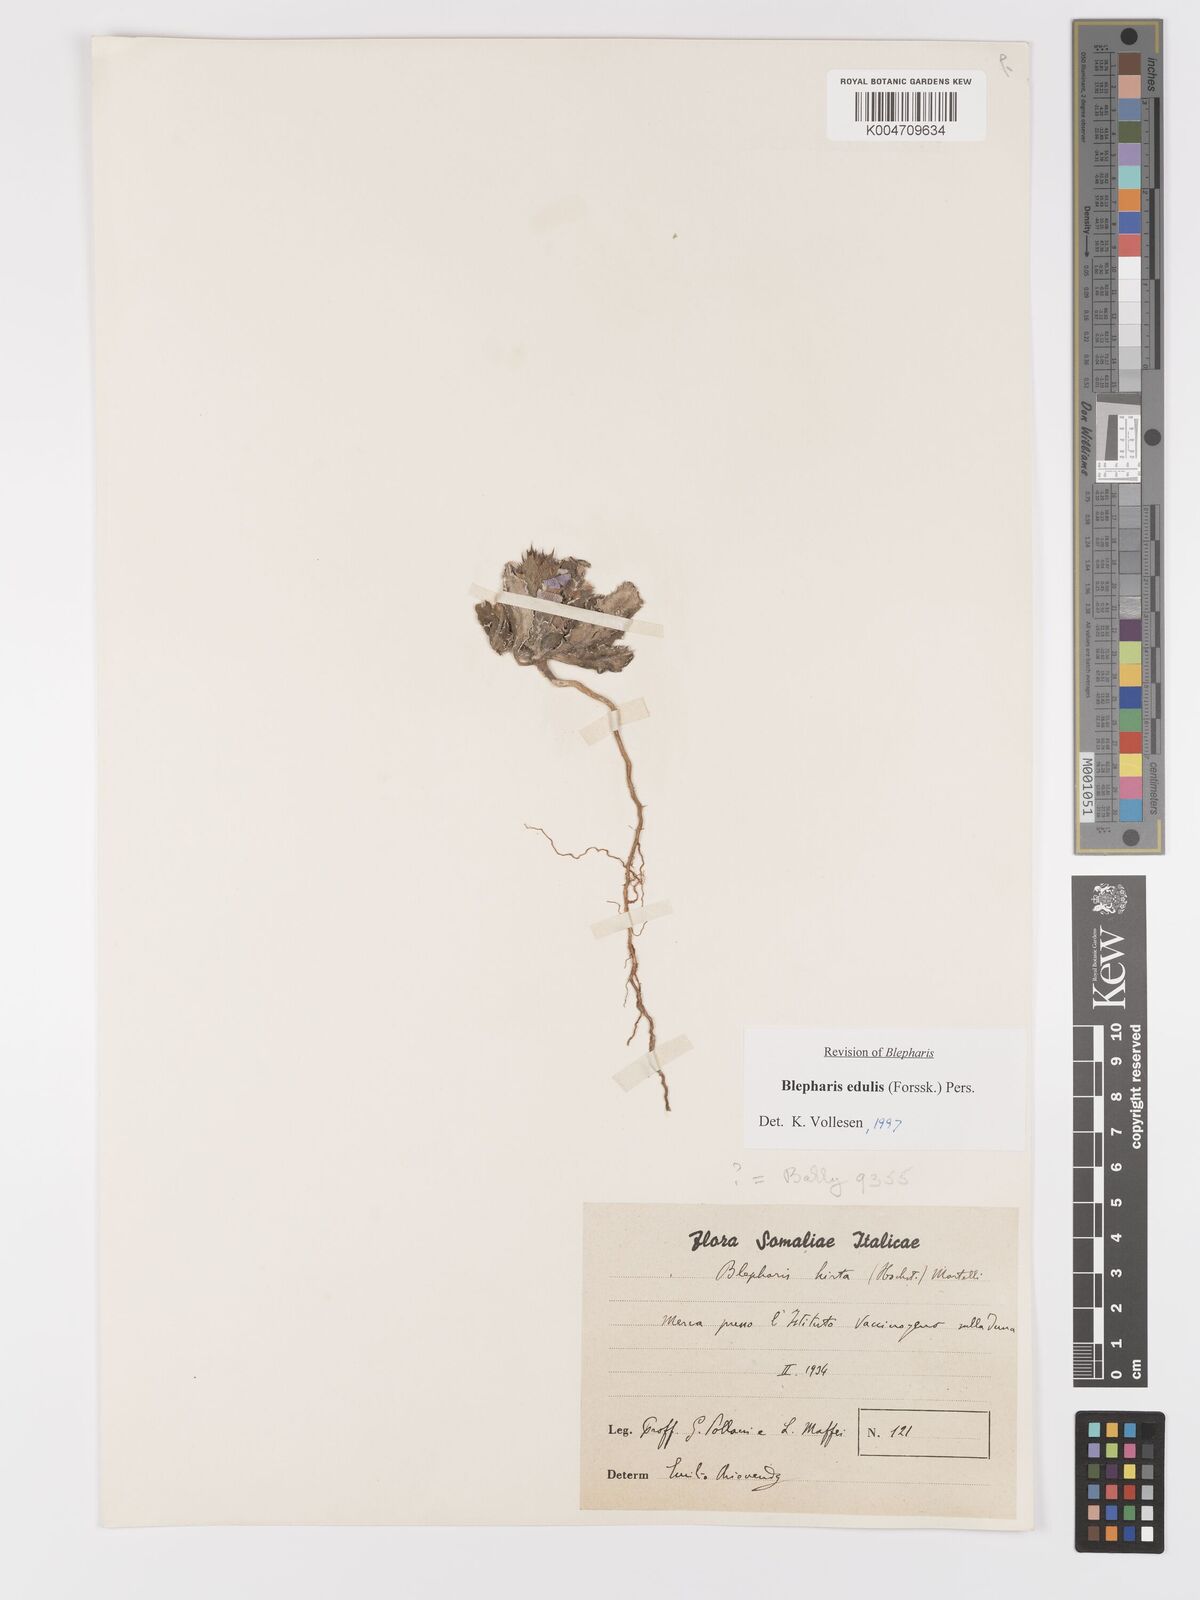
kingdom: Plantae
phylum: Tracheophyta
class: Magnoliopsida
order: Lamiales
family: Acanthaceae
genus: Blepharis
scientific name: Blepharis edulis
